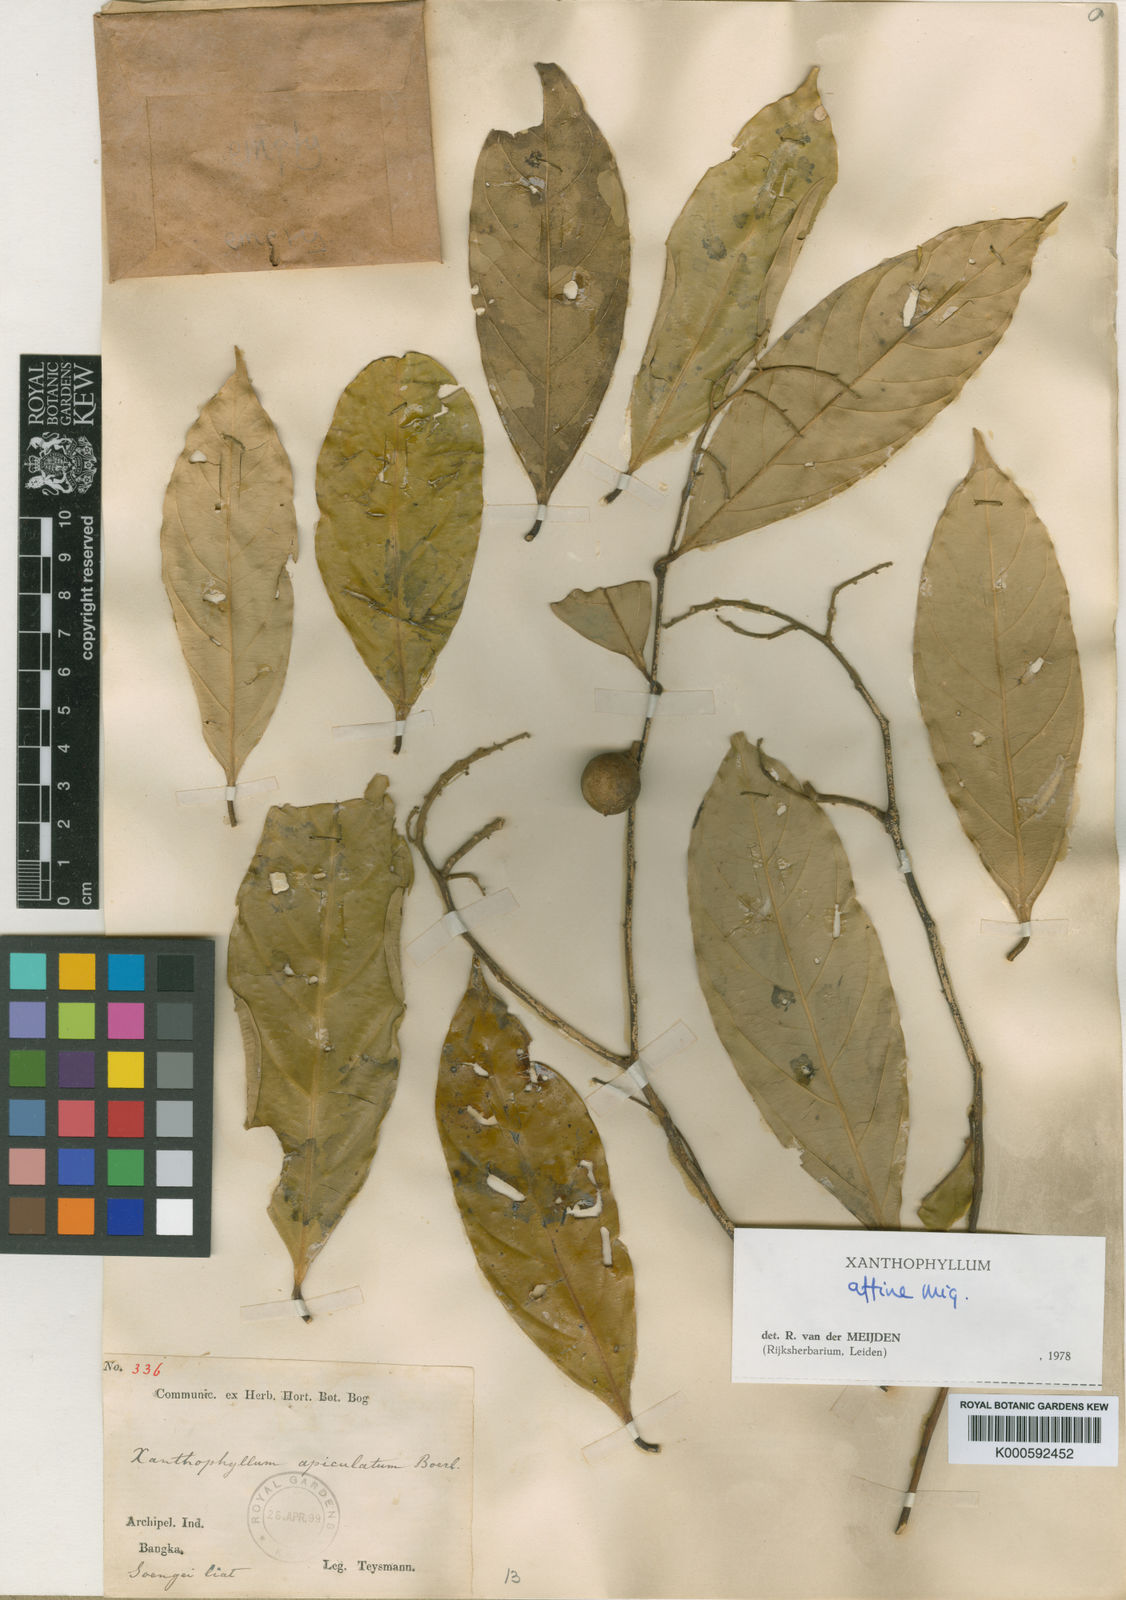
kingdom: Plantae
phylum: Tracheophyta
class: Magnoliopsida
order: Fabales
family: Polygalaceae
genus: Xanthophyllum
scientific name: Xanthophyllum flavescens
